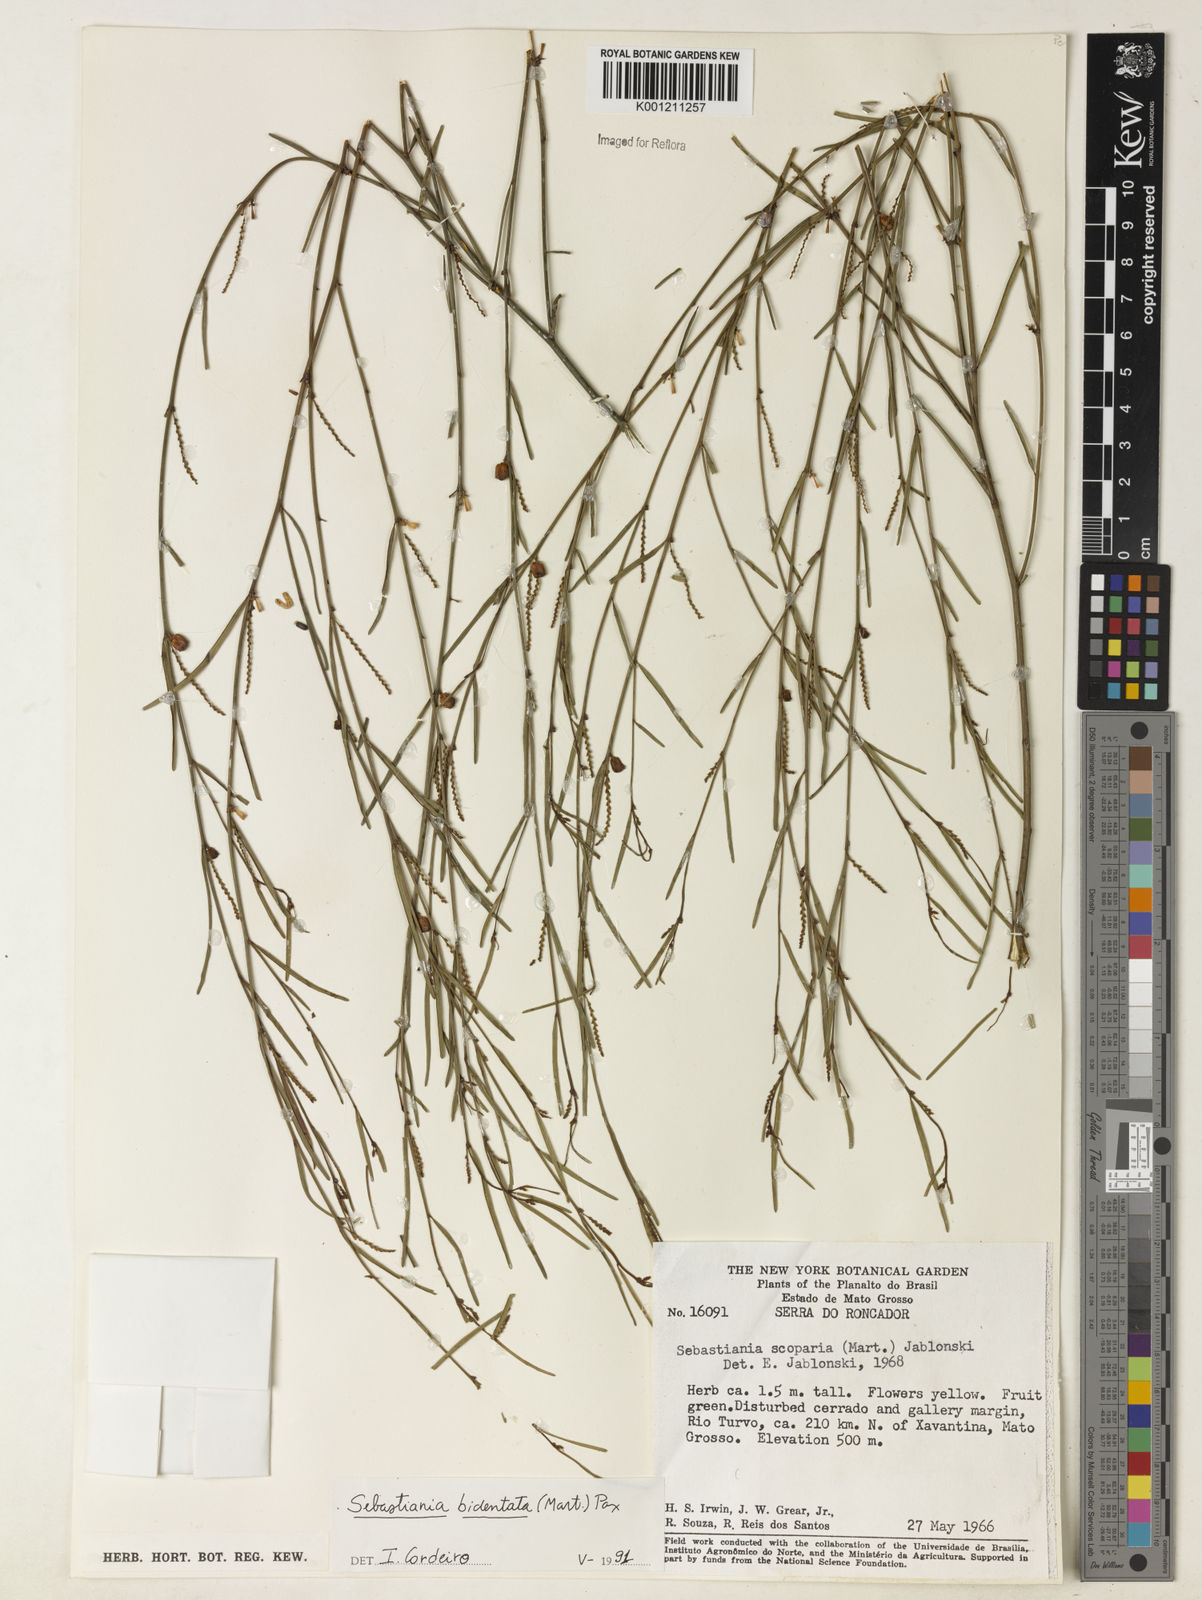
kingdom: Plantae
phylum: Tracheophyta
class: Magnoliopsida
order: Malpighiales
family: Euphorbiaceae
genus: Microstachys
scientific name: Microstachys bidentata
